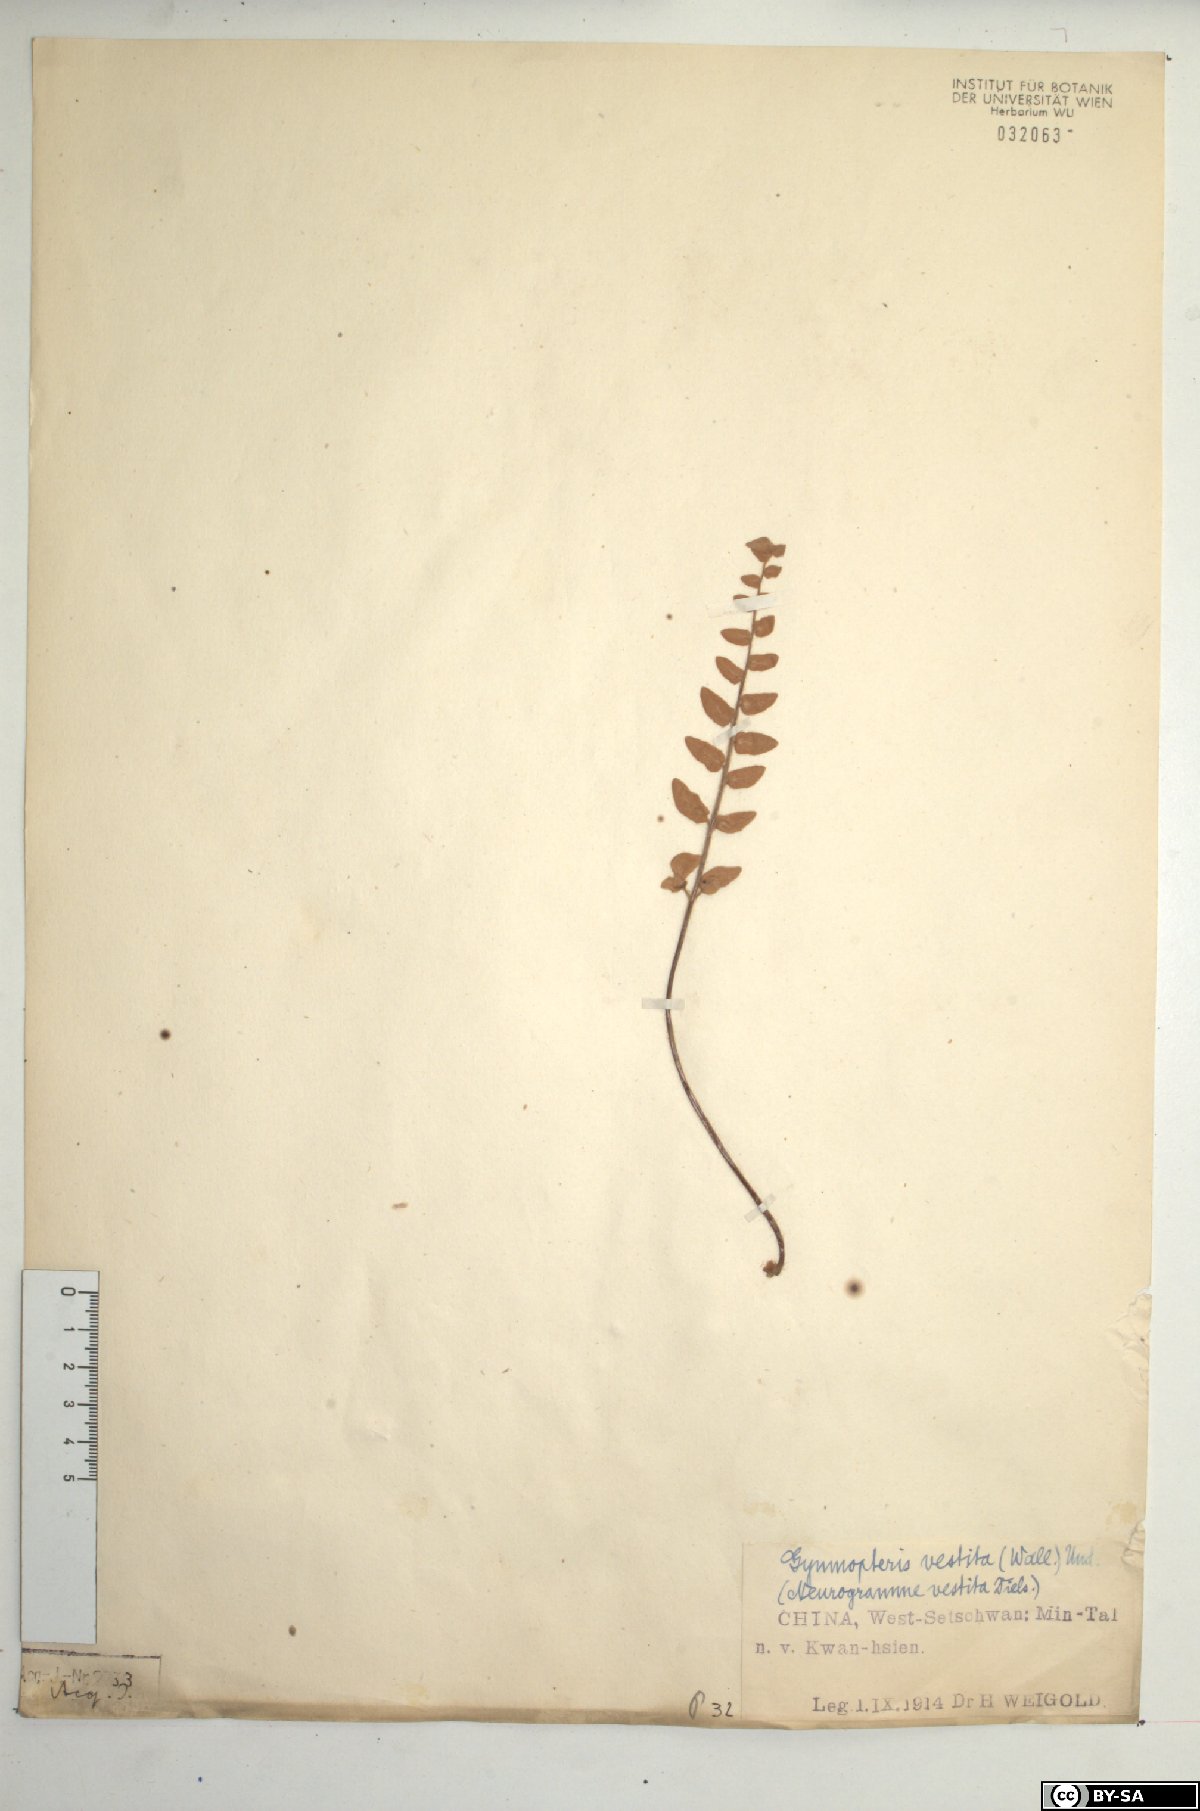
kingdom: Plantae
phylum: Tracheophyta
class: Polypodiopsida
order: Polypodiales
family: Pteridaceae
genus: Paragymnopteris
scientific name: Paragymnopteris vestita
